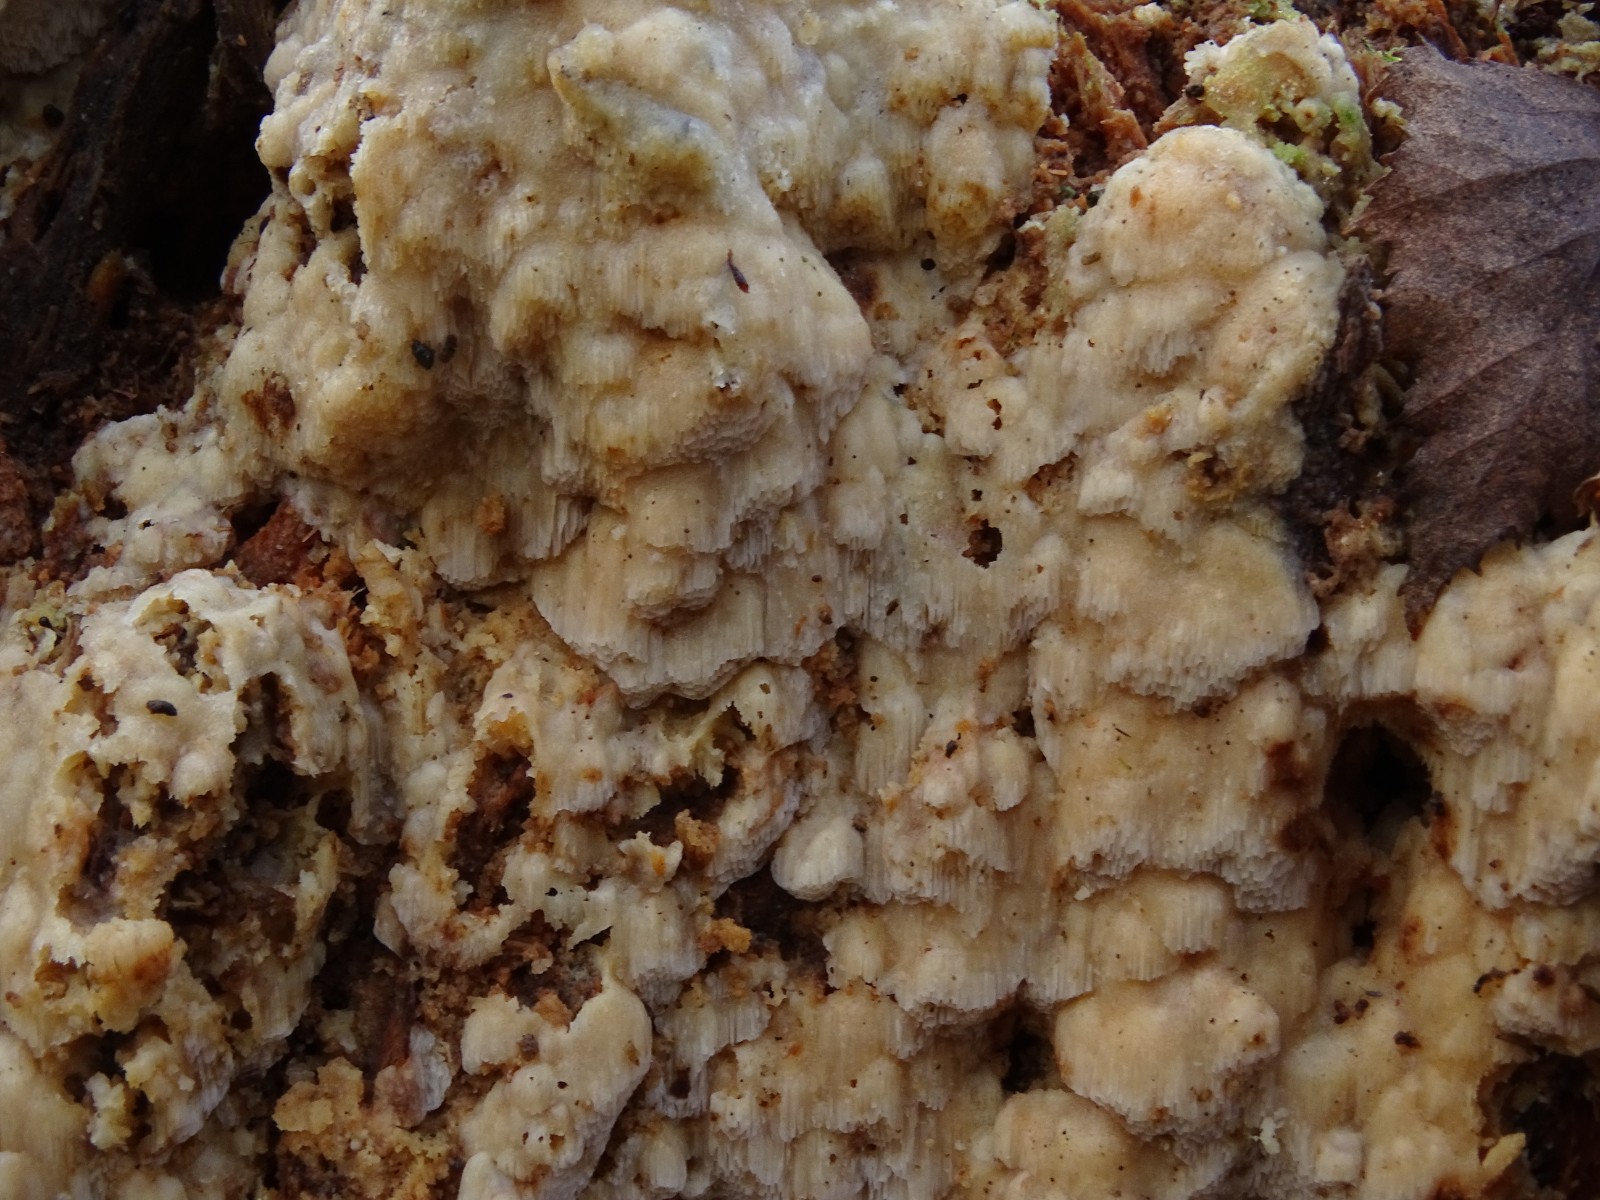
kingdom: Fungi
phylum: Basidiomycota
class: Agaricomycetes
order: Polyporales
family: Meruliaceae
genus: Physisporinus
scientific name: Physisporinus vitreus
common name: mastesvamp
